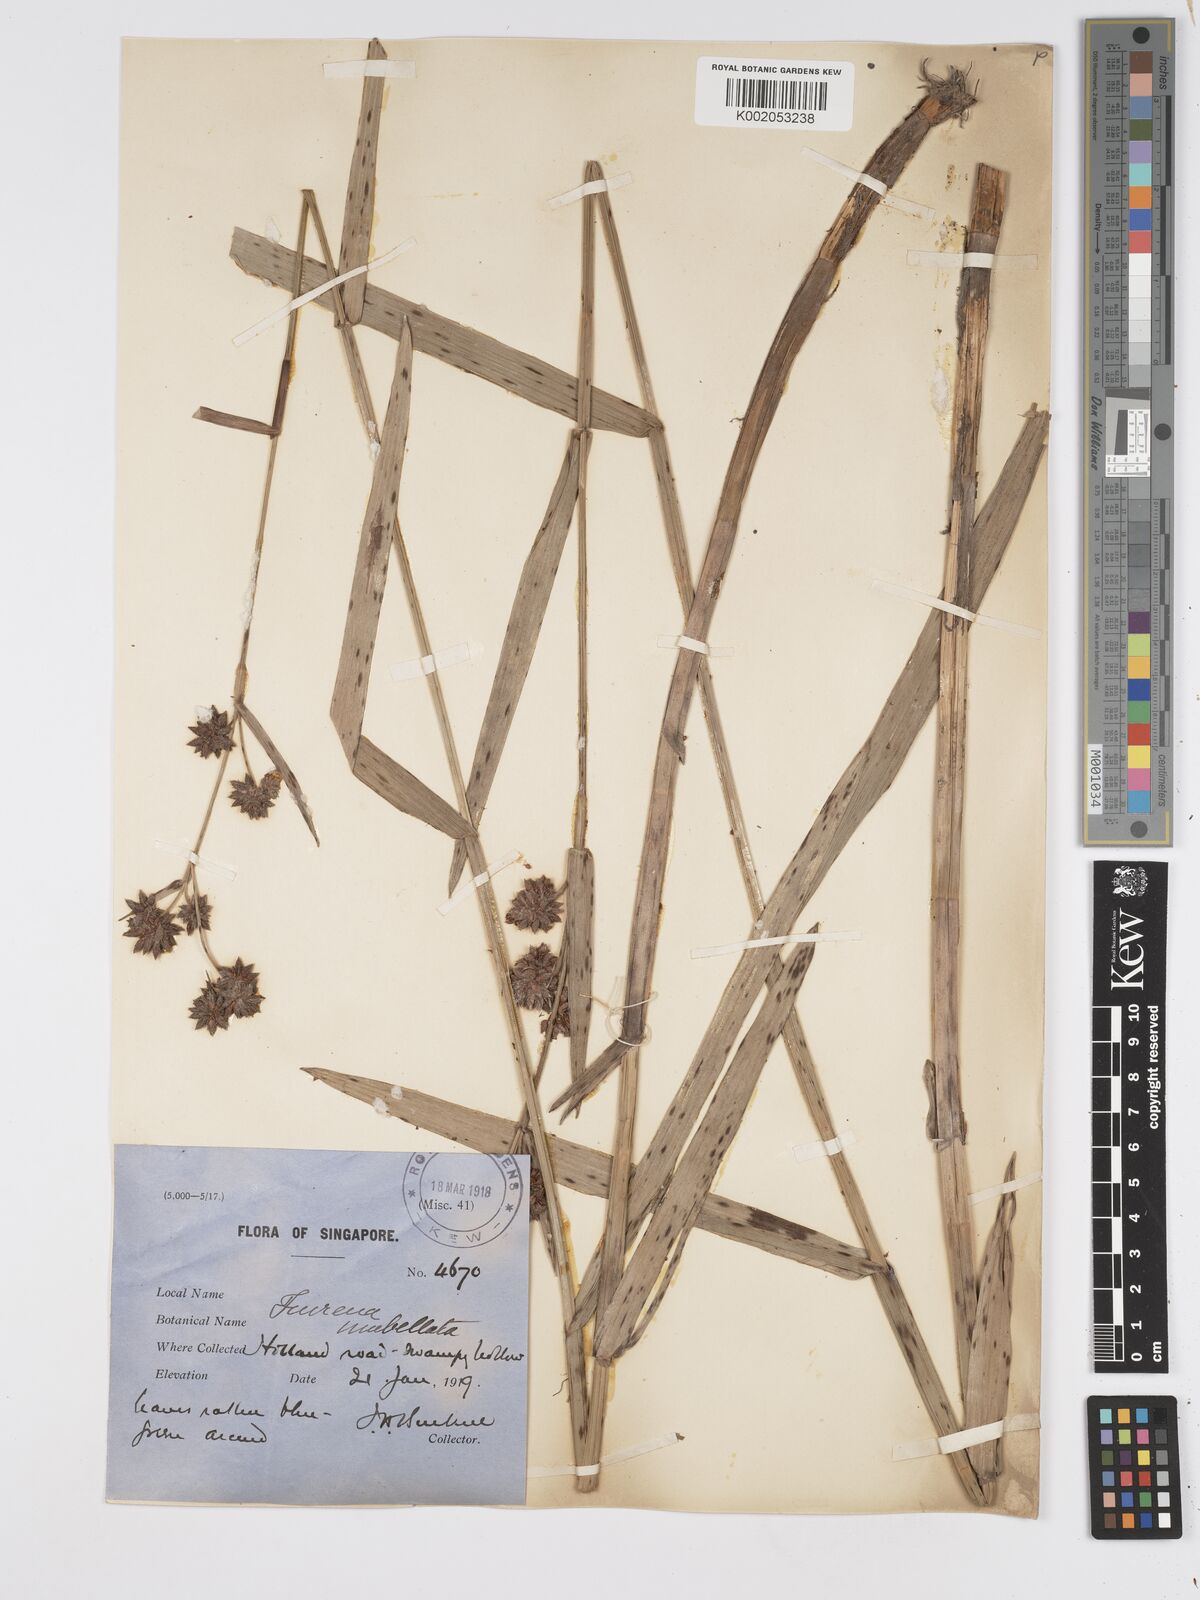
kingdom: Plantae
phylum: Tracheophyta
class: Liliopsida
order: Poales
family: Cyperaceae
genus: Fuirena
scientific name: Fuirena umbellata
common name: Yefen
